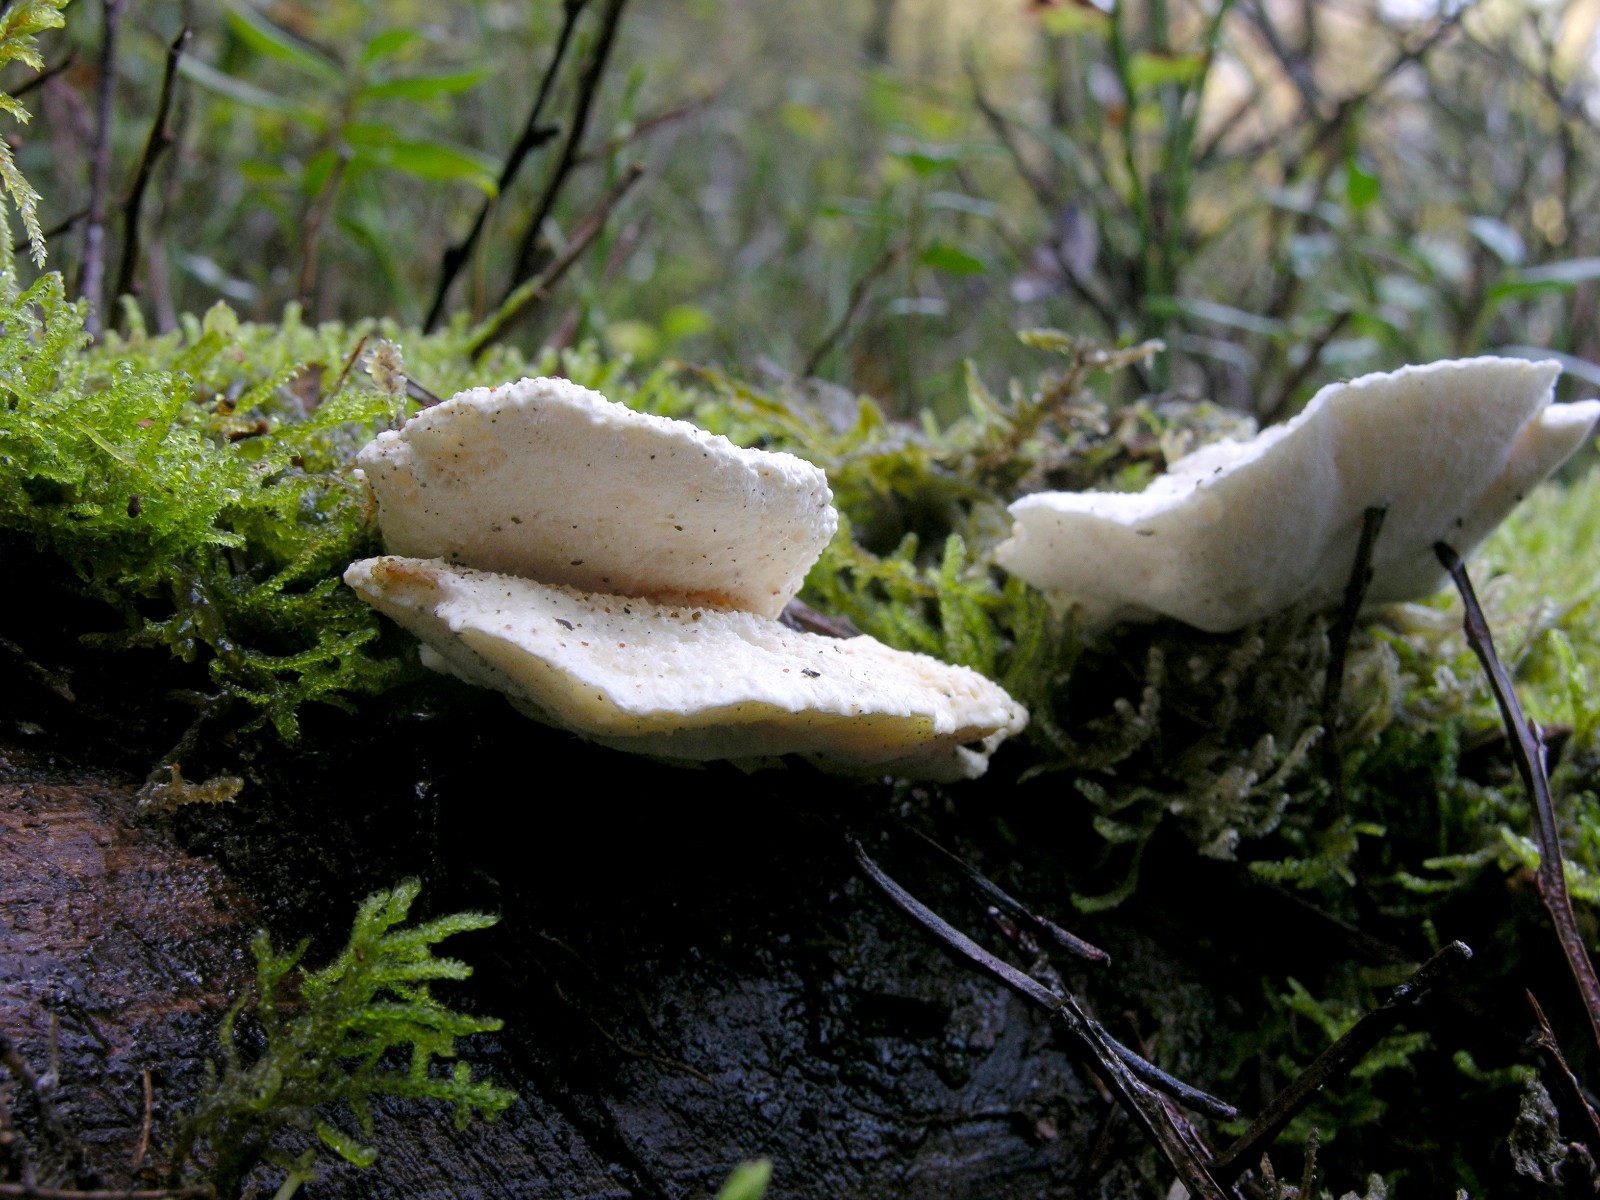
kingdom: Fungi
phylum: Basidiomycota
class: Agaricomycetes
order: Polyporales
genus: Amaropostia
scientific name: Amaropostia stiptica
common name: bitter kødporesvamp
